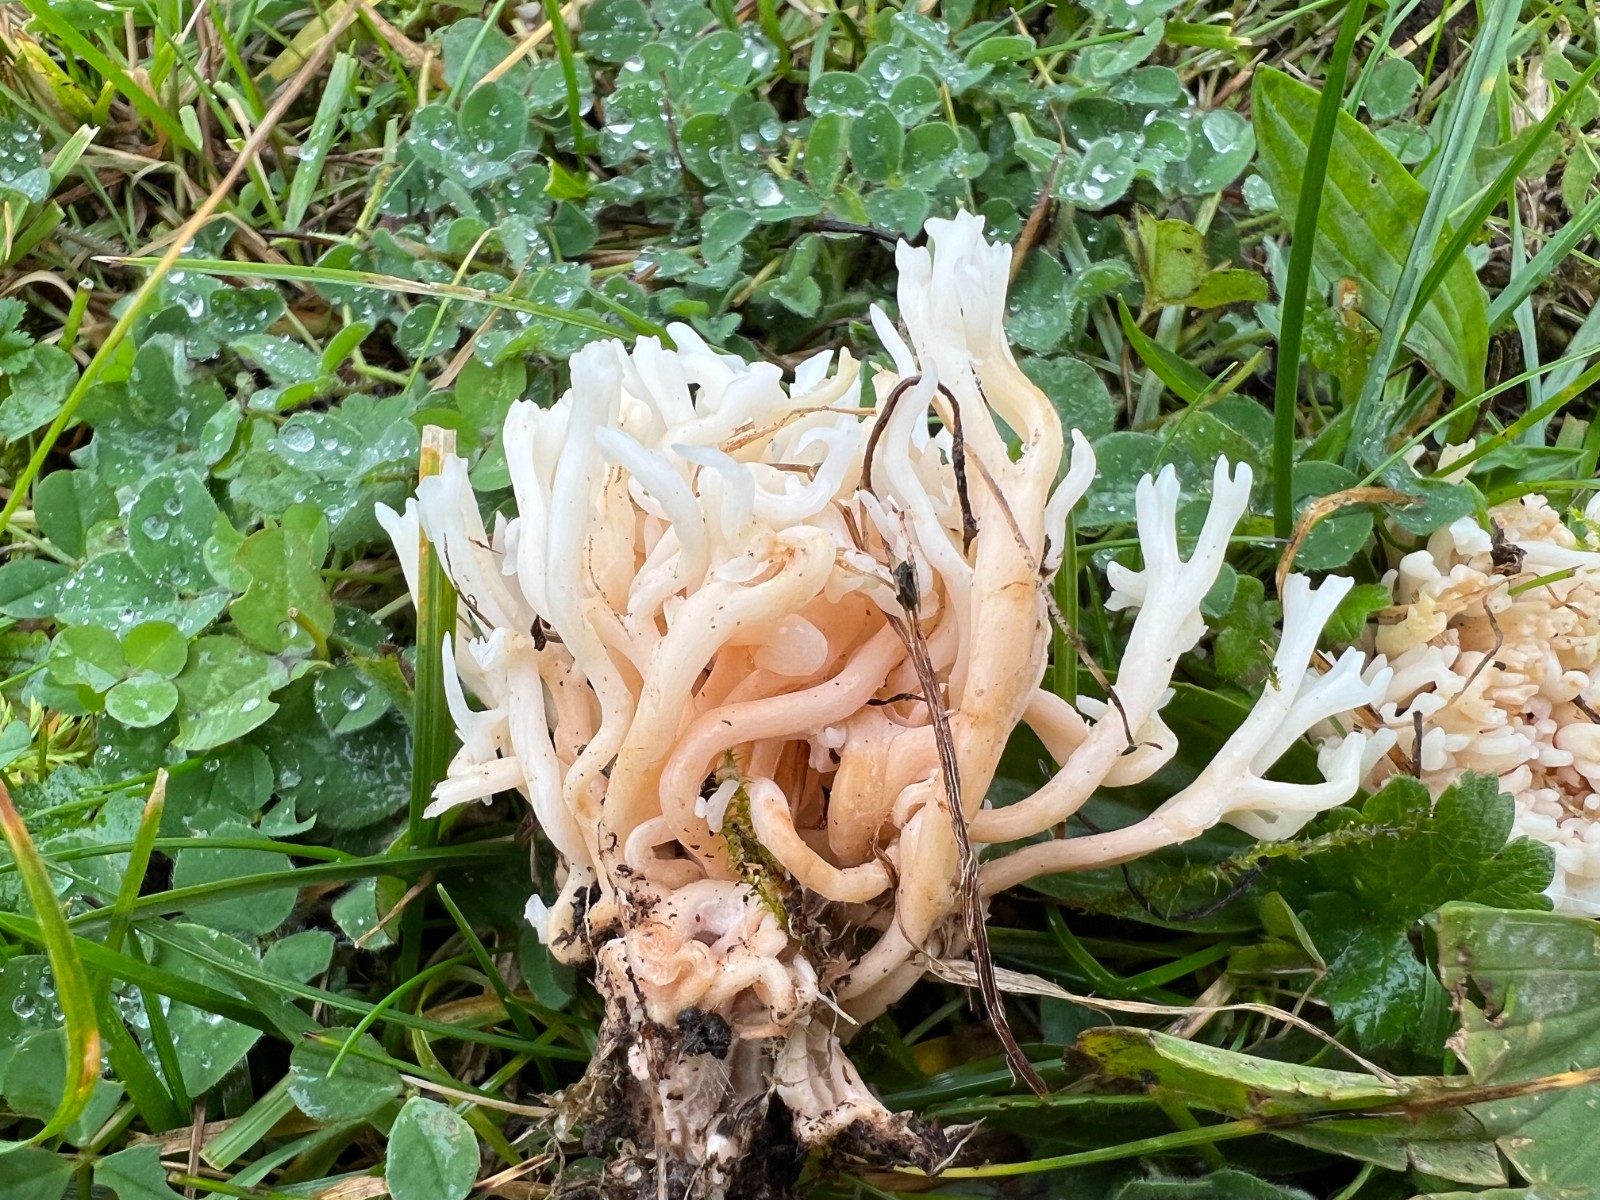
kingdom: Fungi
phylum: Basidiomycota
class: Agaricomycetes
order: Agaricales
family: Clavariaceae
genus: Ramariopsis
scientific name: Ramariopsis robusta
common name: tykgrenet køllesvamp
